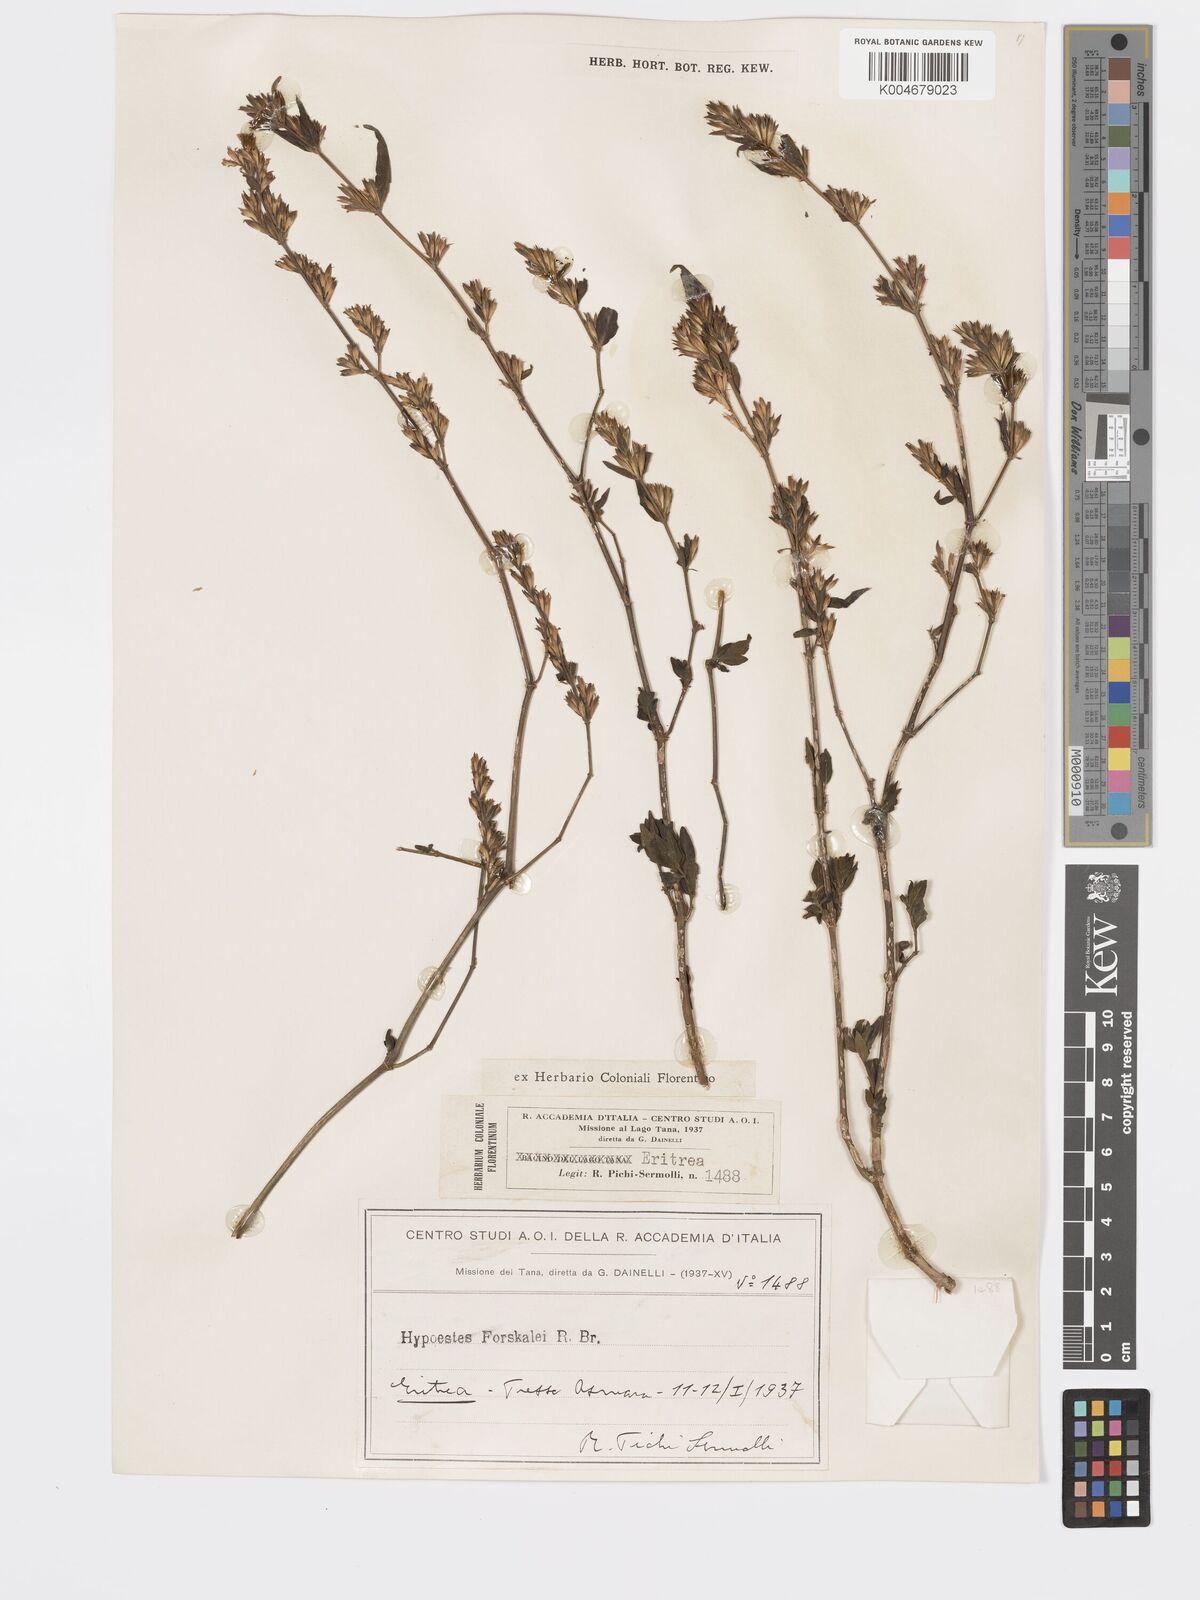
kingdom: Plantae
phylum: Tracheophyta
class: Magnoliopsida
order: Lamiales
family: Acanthaceae
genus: Hypoestes
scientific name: Hypoestes forskaolii
